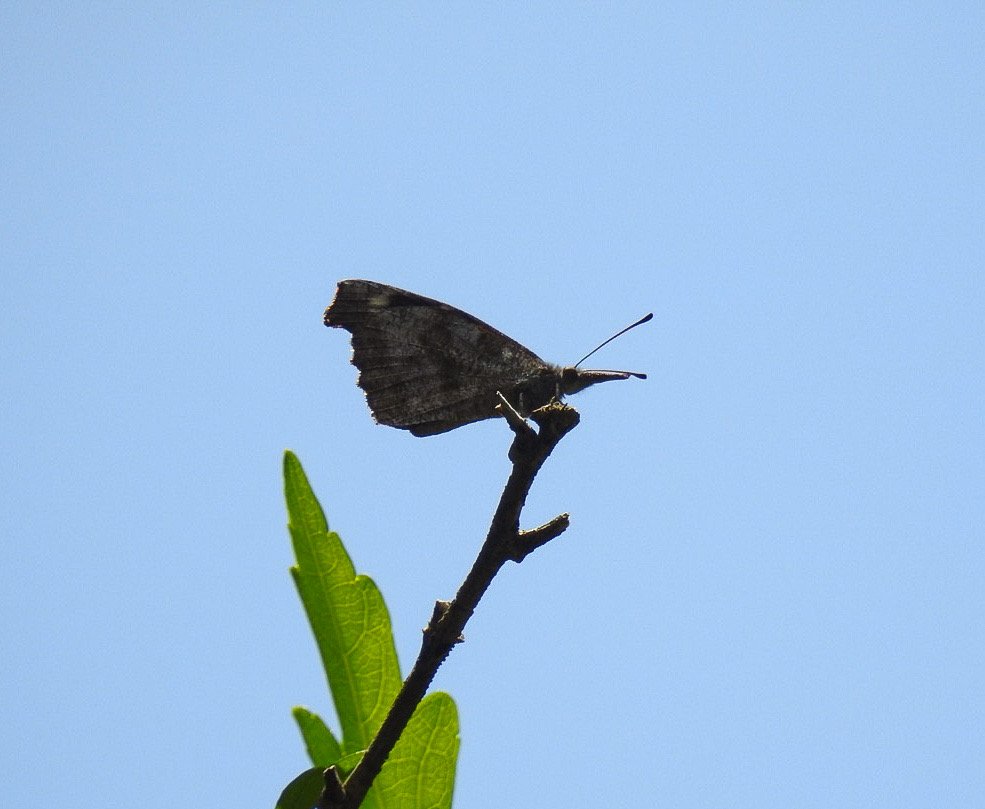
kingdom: Animalia
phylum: Arthropoda
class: Insecta
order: Lepidoptera
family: Nymphalidae
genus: Libytheana
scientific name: Libytheana carinenta
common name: American Snout
